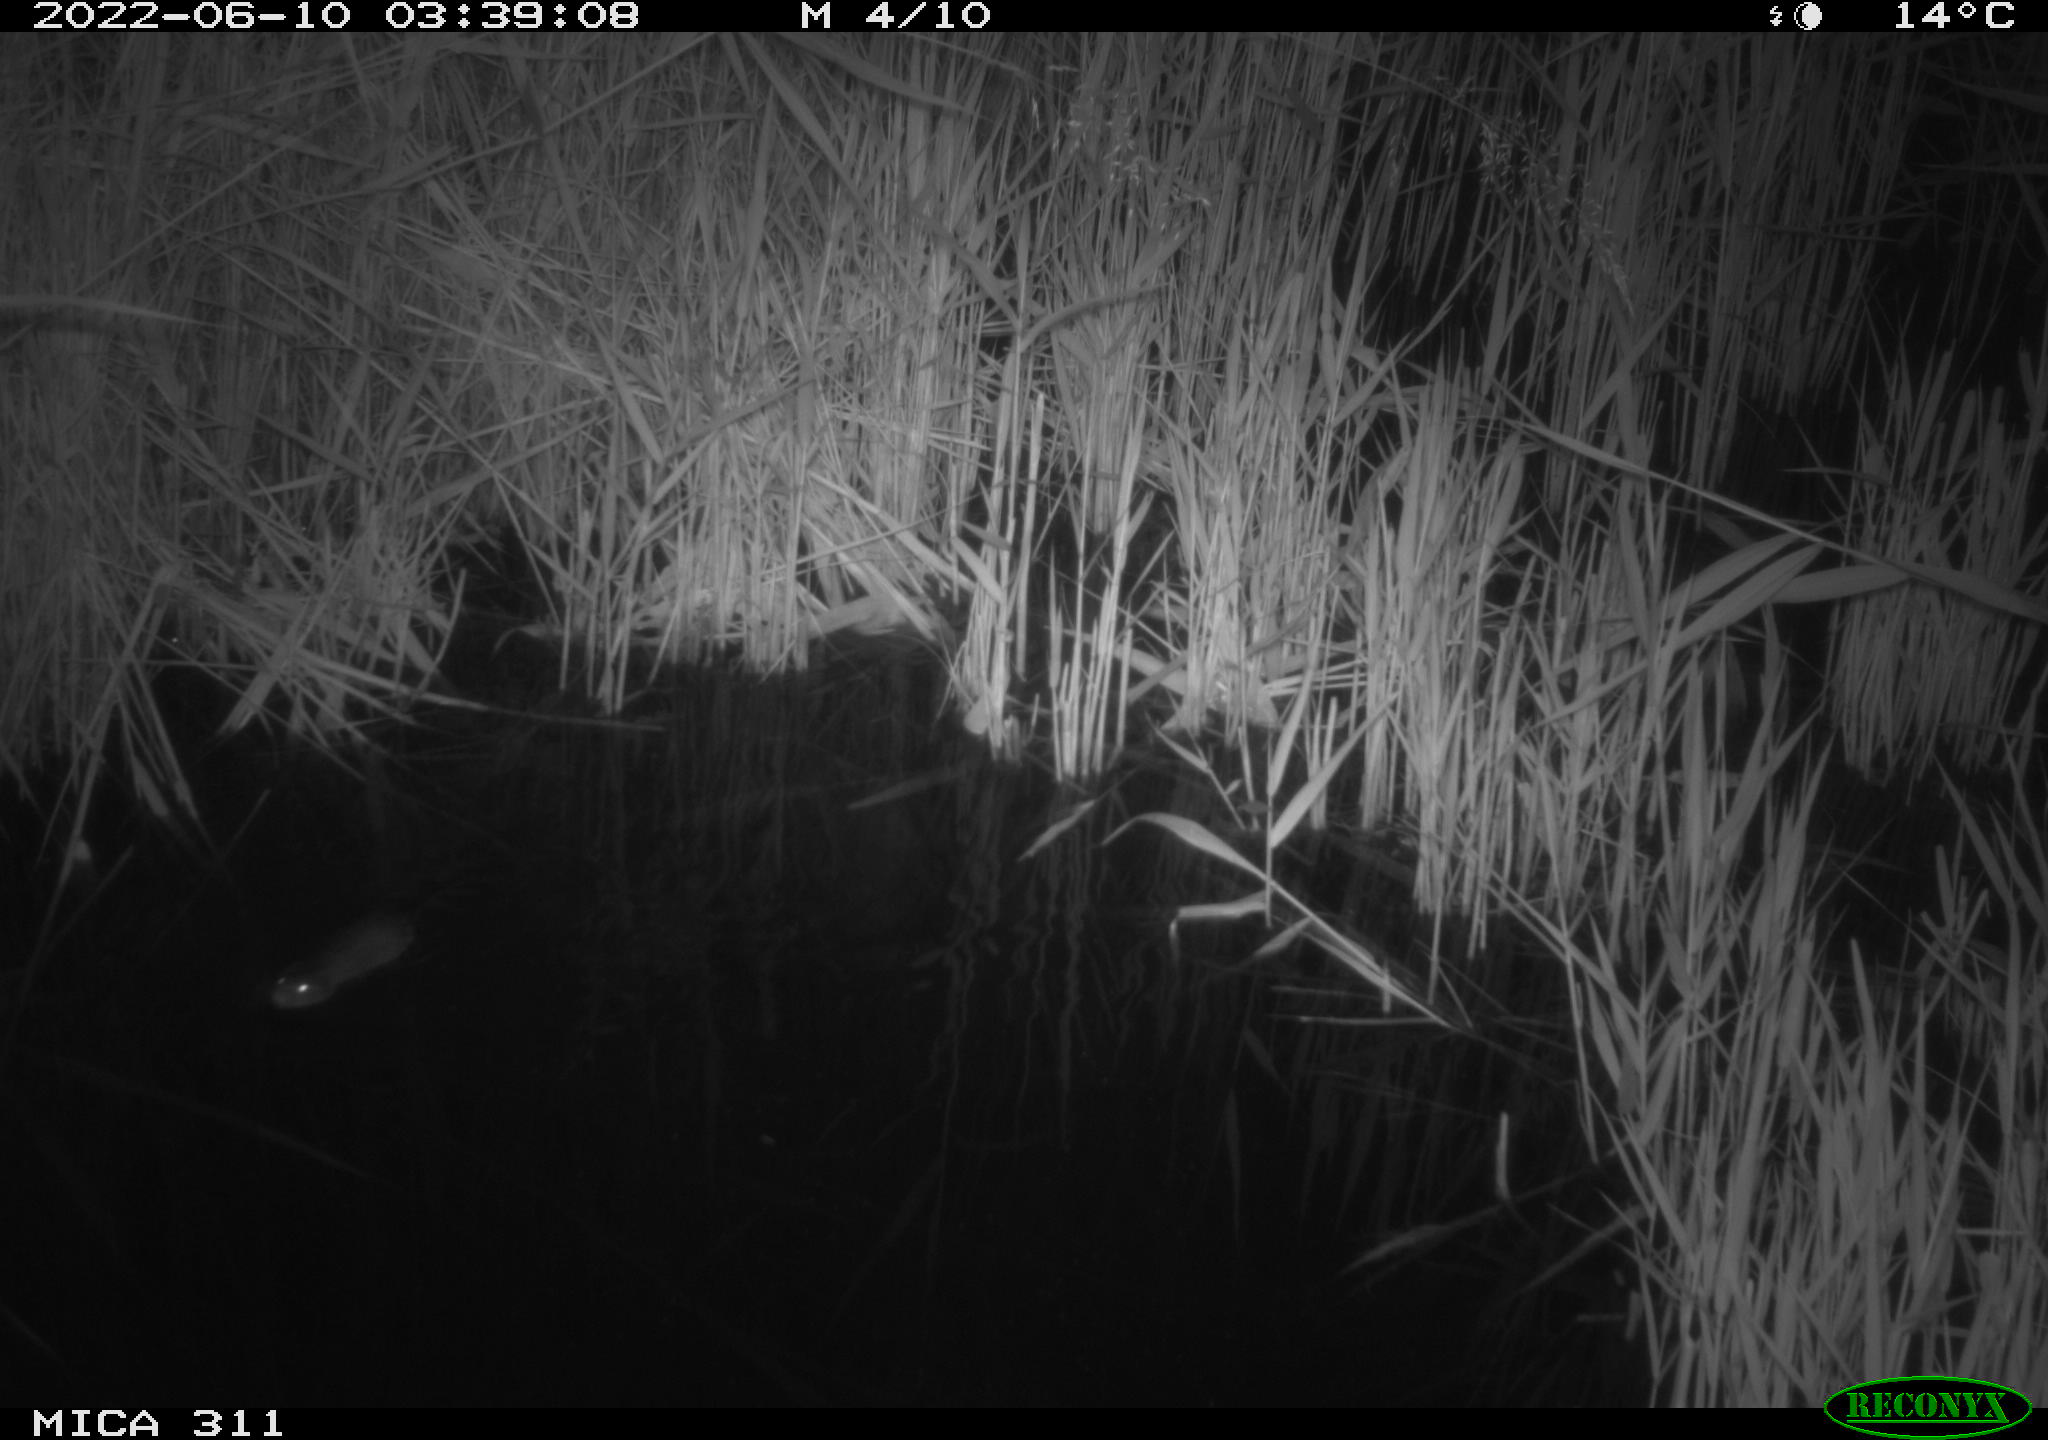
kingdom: Animalia
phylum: Chordata
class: Mammalia
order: Rodentia
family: Muridae
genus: Rattus
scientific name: Rattus norvegicus
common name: Brown rat
